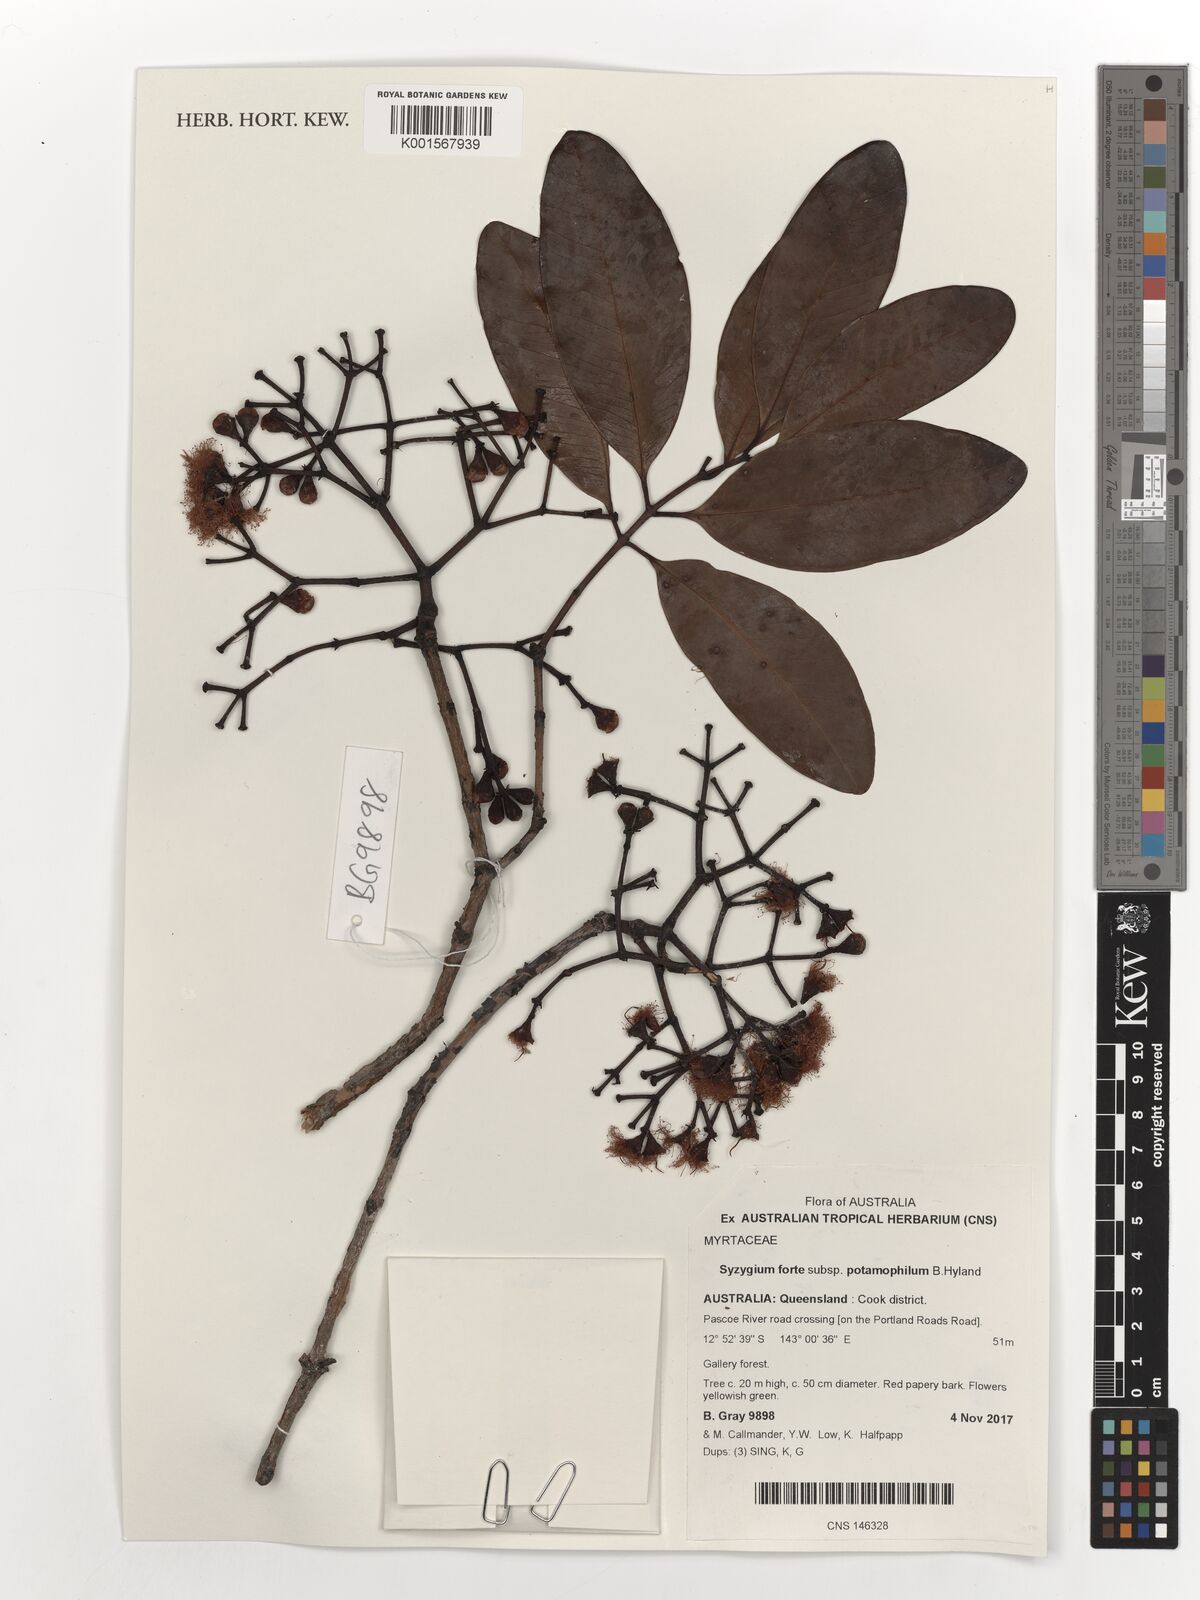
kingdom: Plantae
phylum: Tracheophyta
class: Magnoliopsida
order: Myrtales
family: Myrtaceae
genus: Syzygium
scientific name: Syzygium forte
